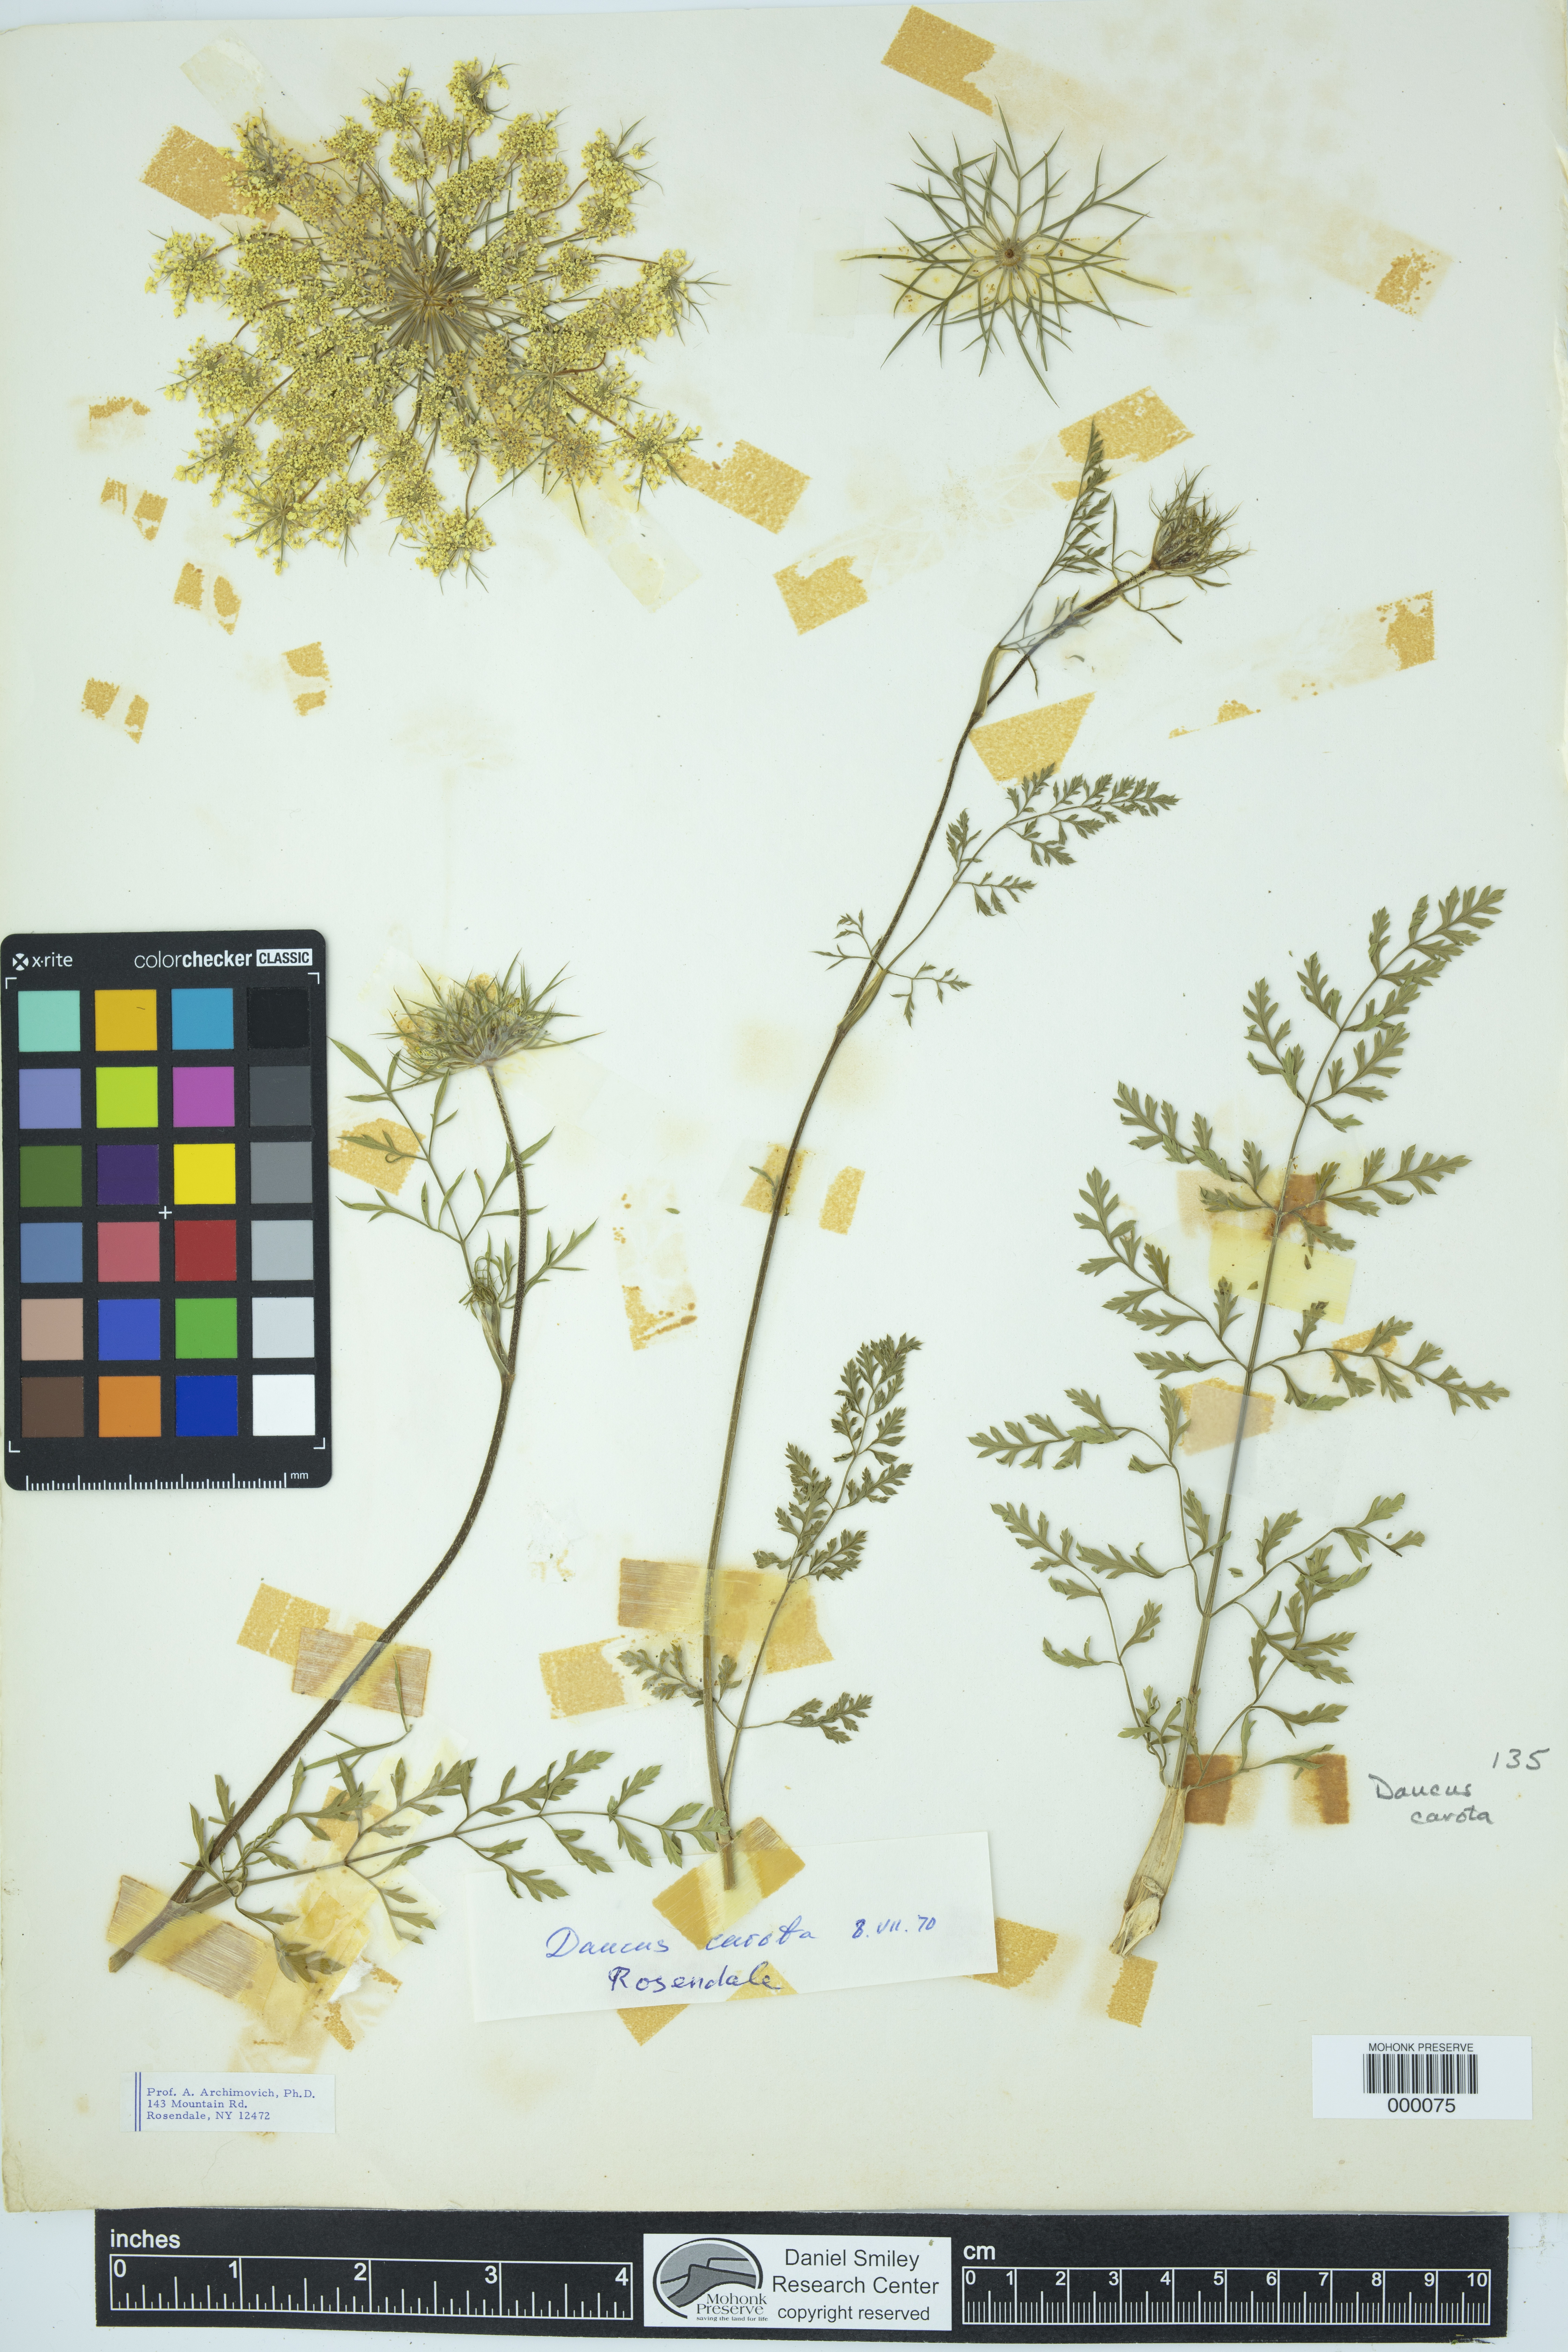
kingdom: Plantae
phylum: Tracheophyta
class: Magnoliopsida
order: Apiales
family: Apiaceae
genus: Daucus
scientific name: Daucus carota
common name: Wild carrot
